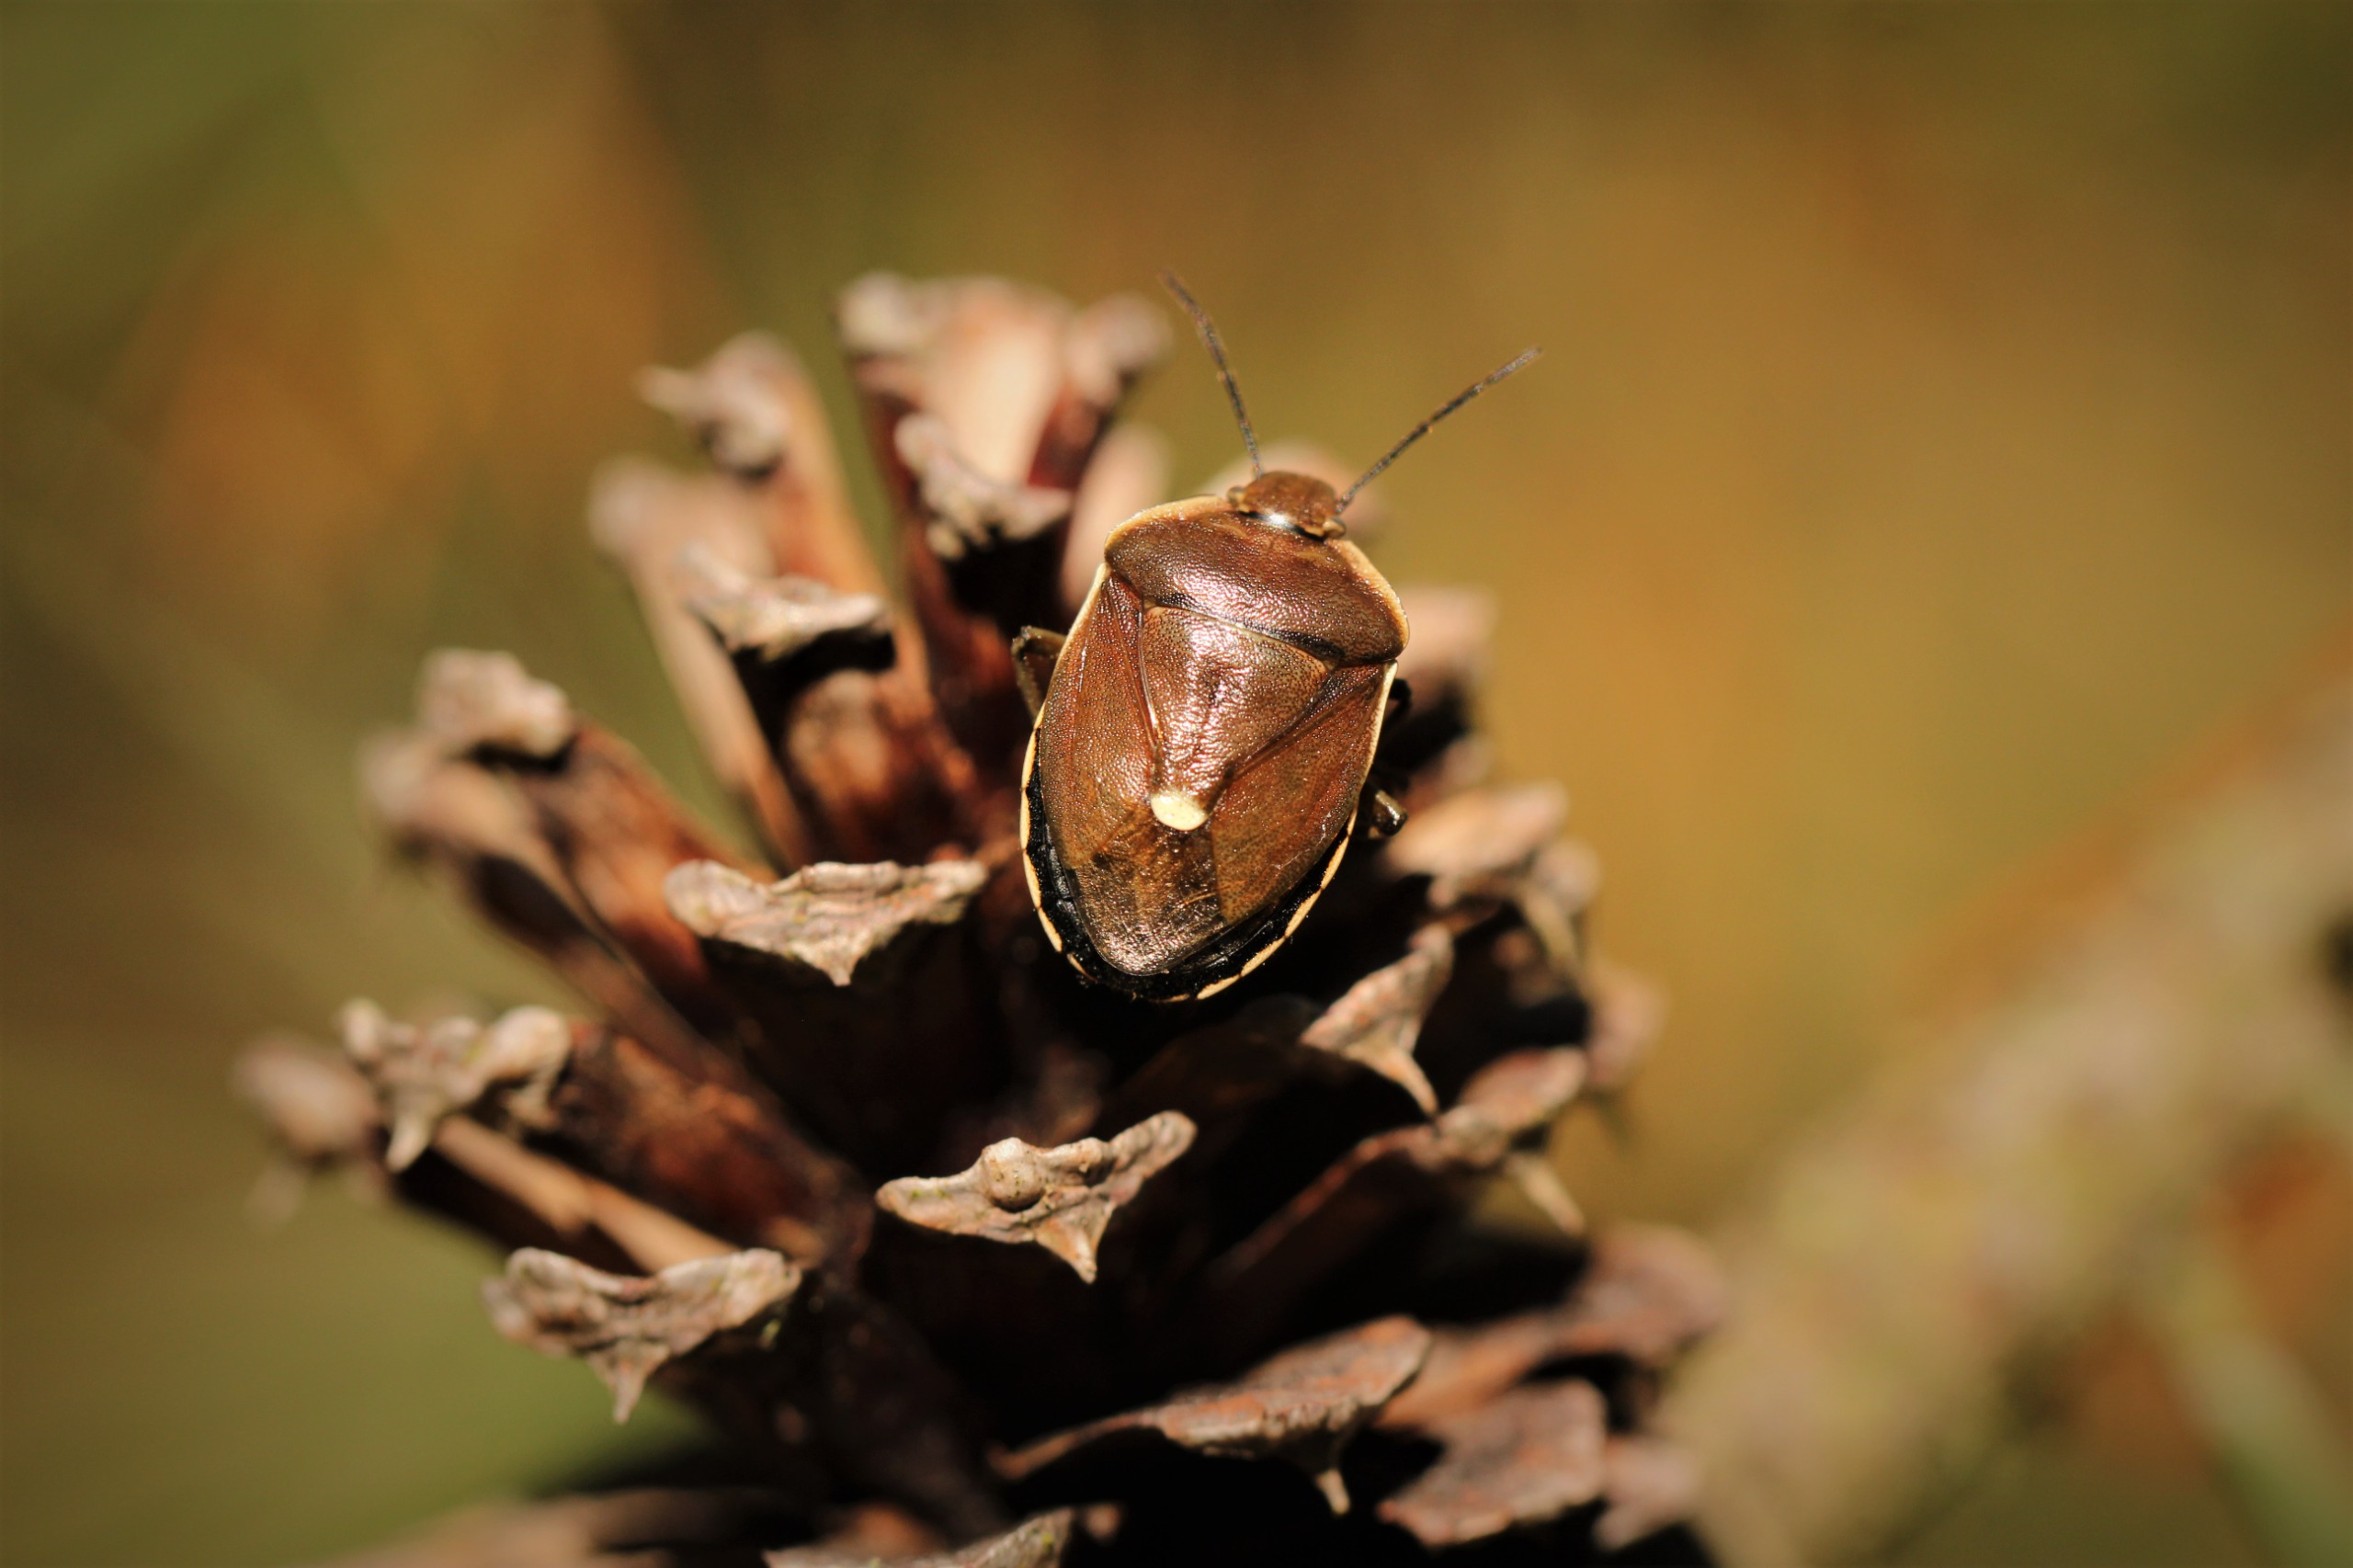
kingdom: Animalia
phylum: Arthropoda
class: Insecta
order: Hemiptera
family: Pentatomidae
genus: Chlorochroa
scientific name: Chlorochroa pinicola
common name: Fyrrebredtæge
